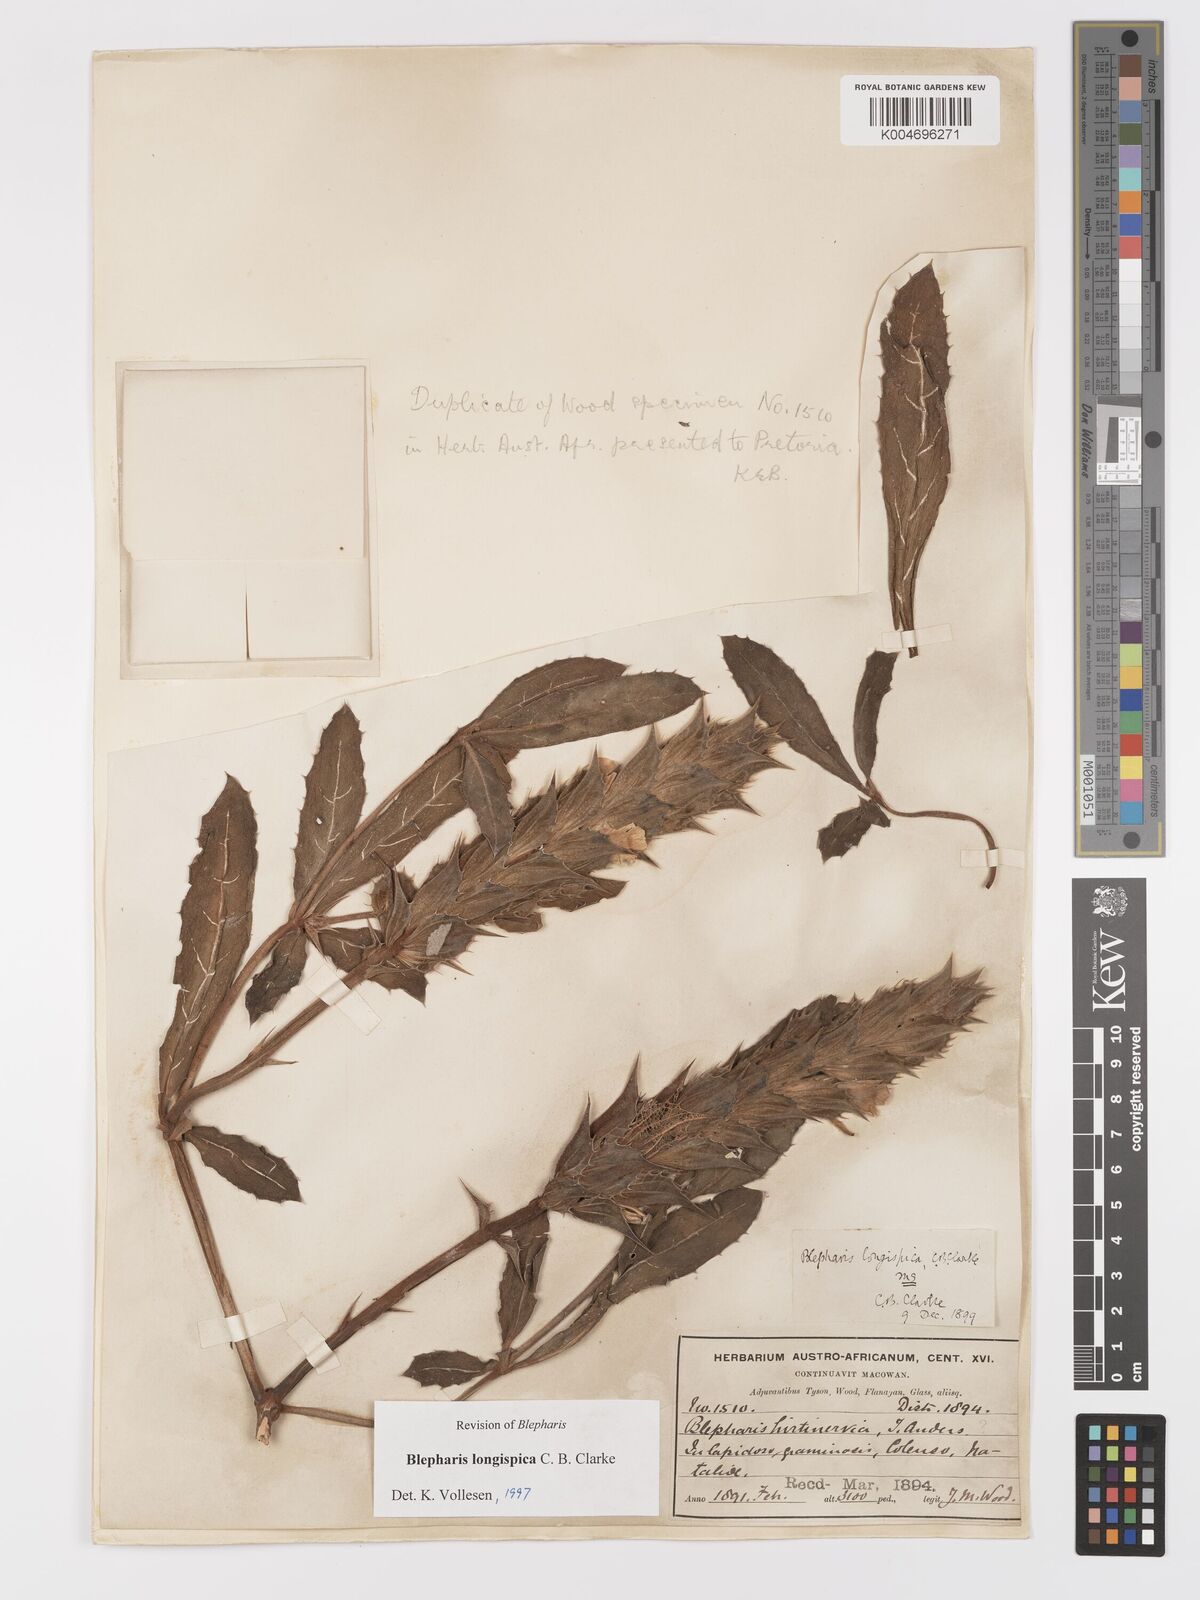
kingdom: Plantae
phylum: Tracheophyta
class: Magnoliopsida
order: Lamiales
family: Acanthaceae
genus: Blepharis
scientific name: Blepharis longispica
